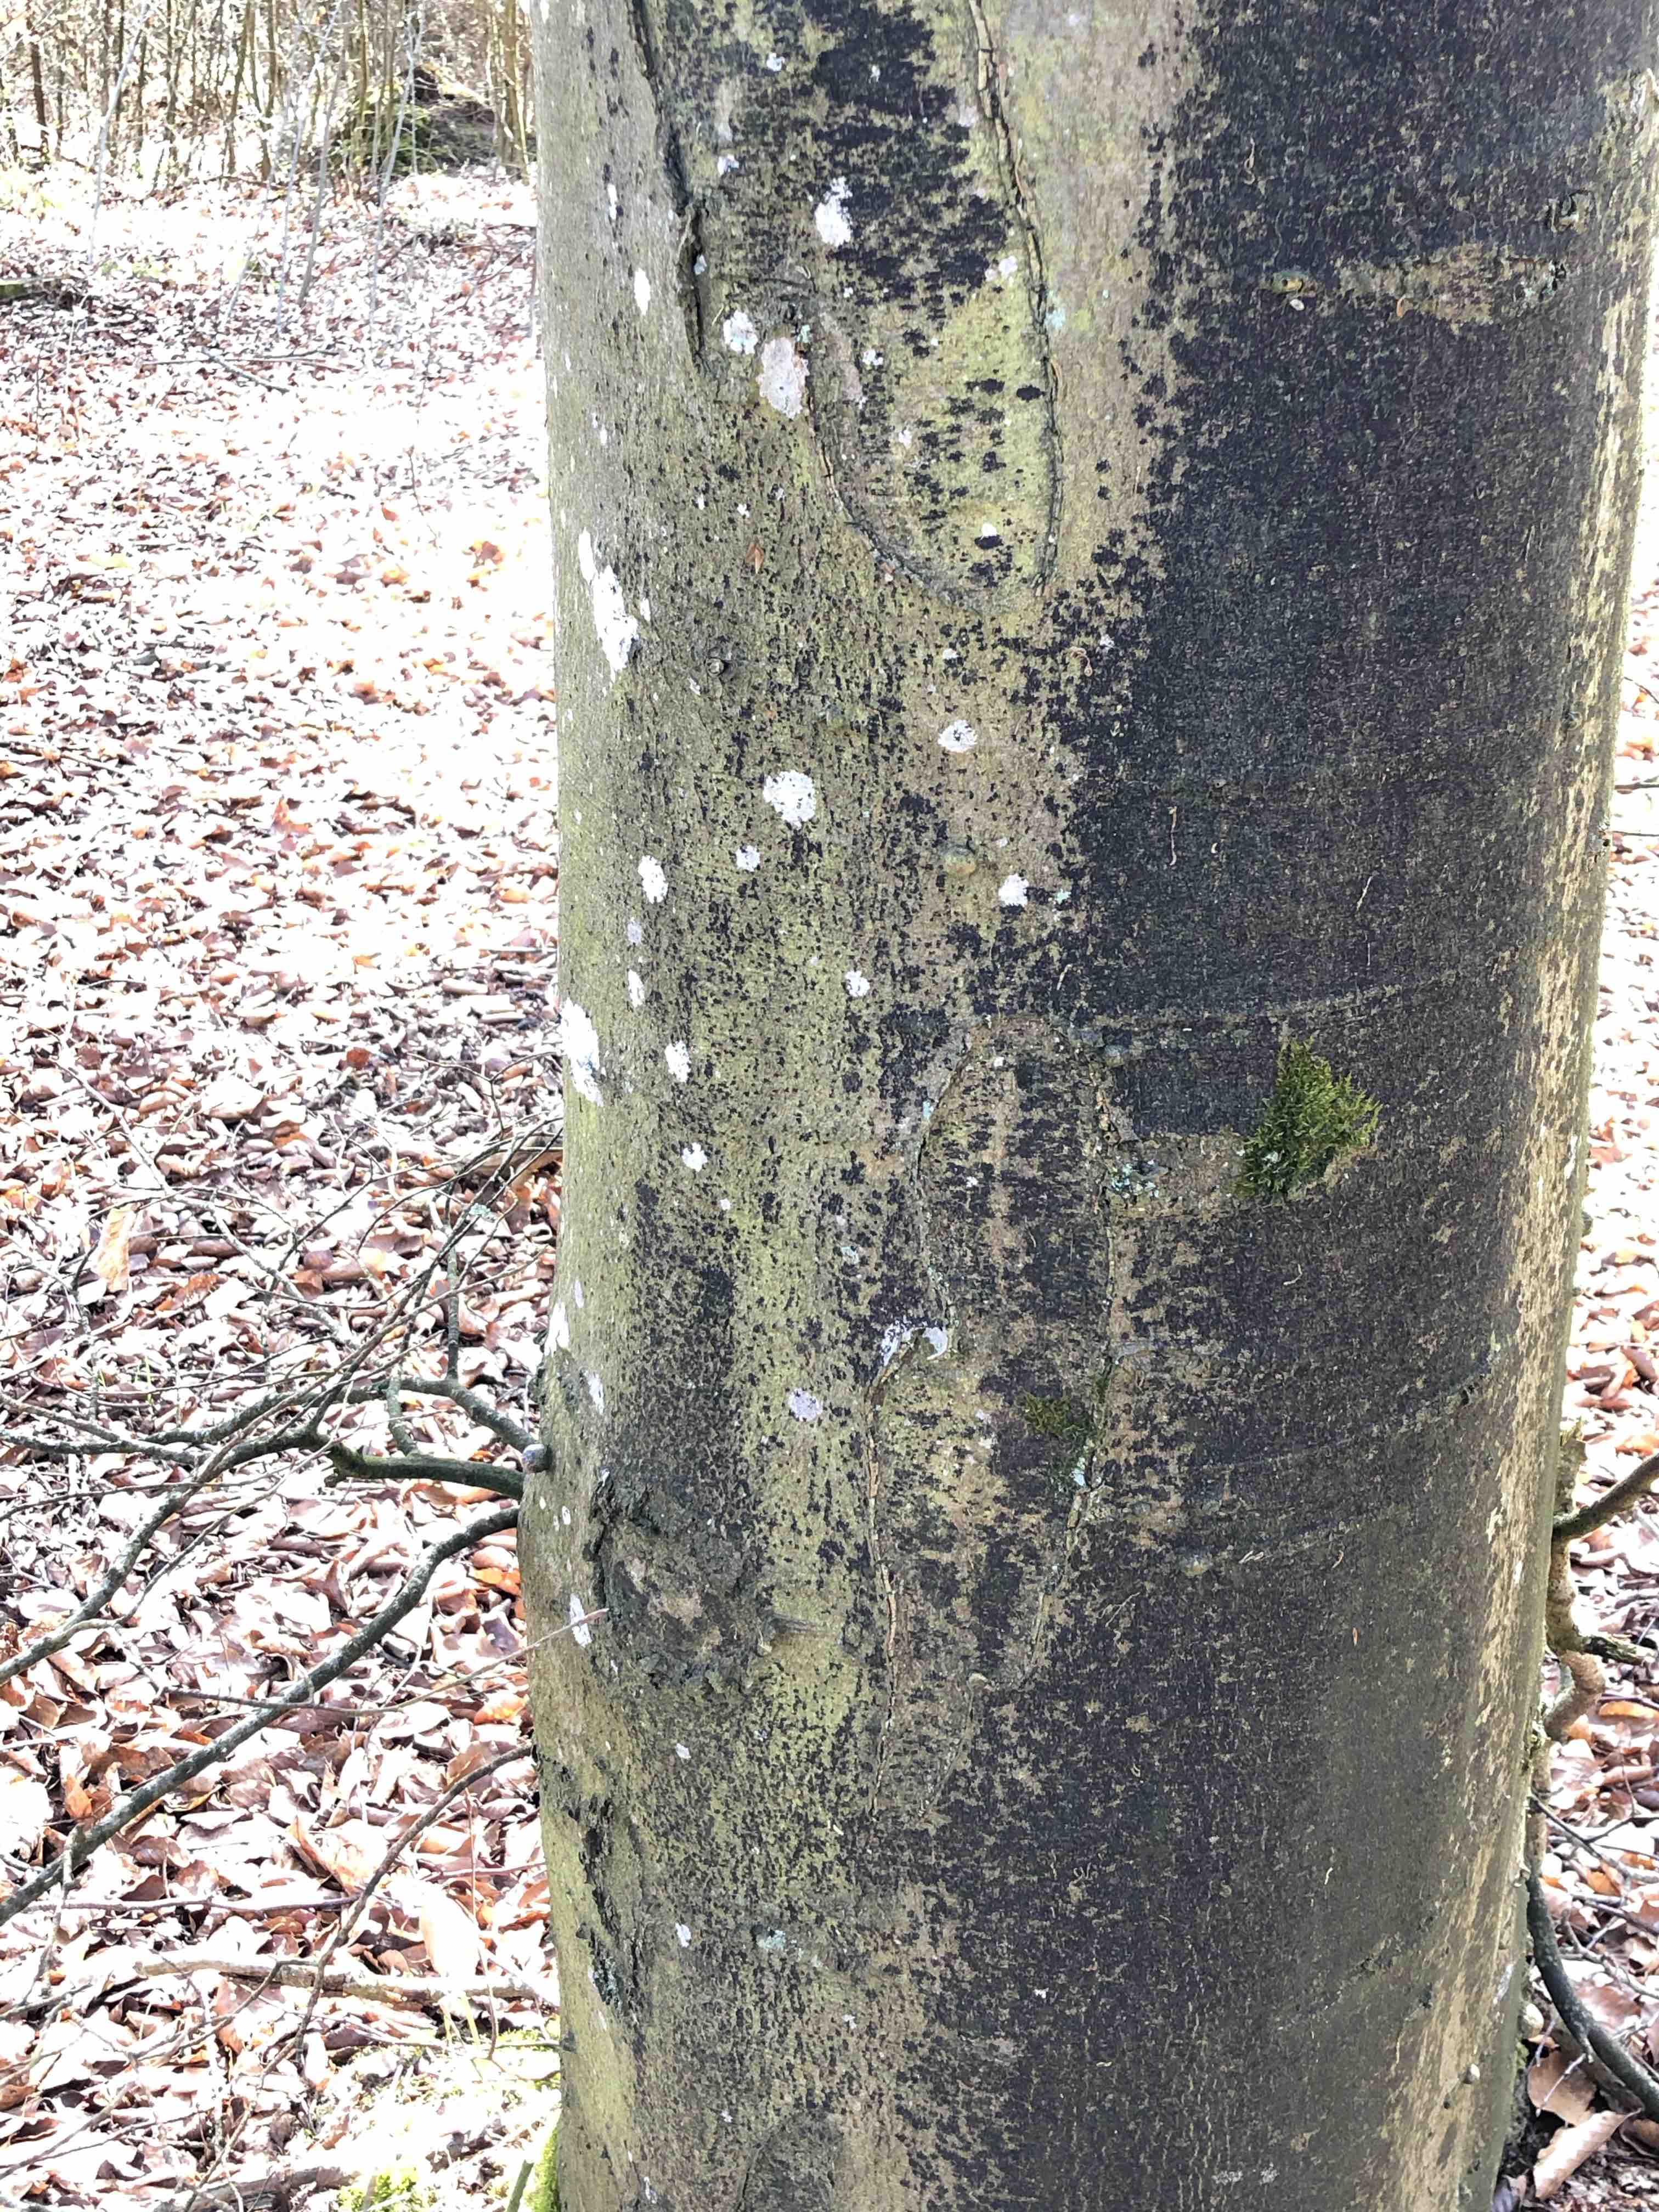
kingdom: Fungi
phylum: Ascomycota
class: Leotiomycetes
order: Rhytismatales
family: Ascodichaenaceae
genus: Ascodichaena
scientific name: Ascodichaena rugosa
